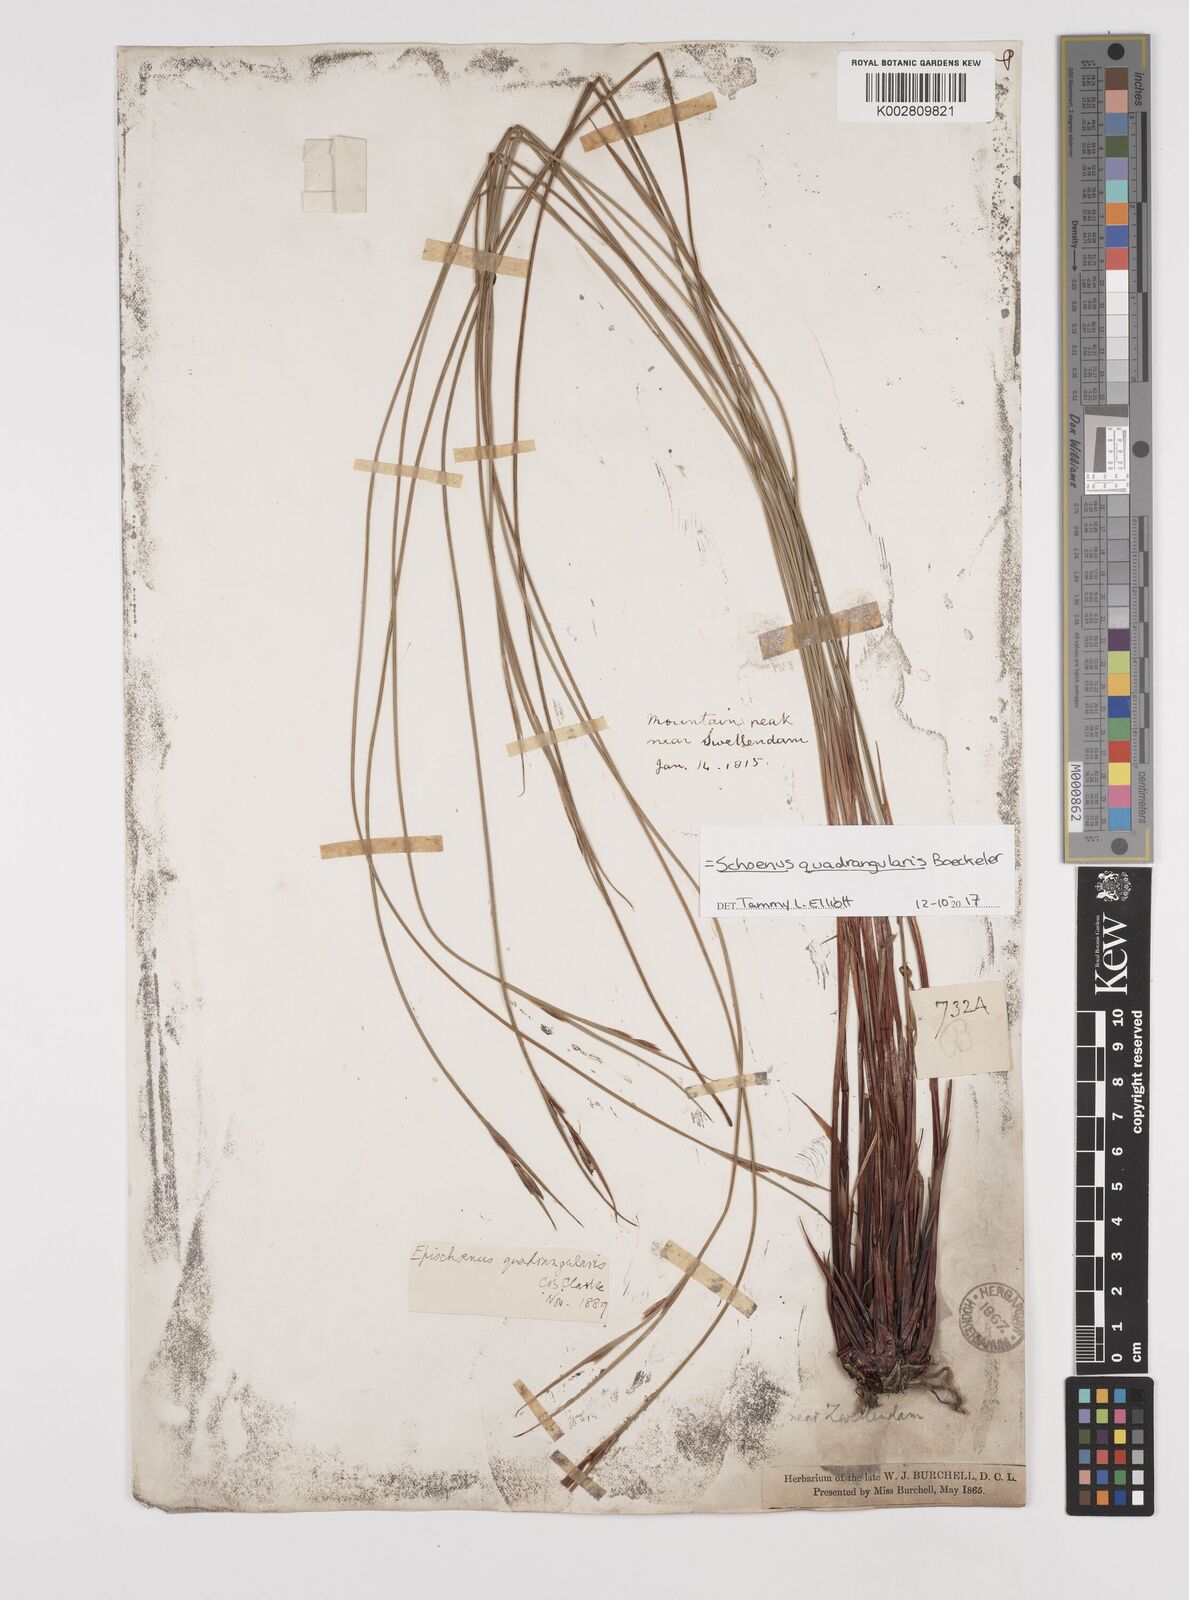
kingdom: Plantae
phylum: Tracheophyta
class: Liliopsida
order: Poales
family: Cyperaceae
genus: Schoenus
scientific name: Schoenus quadrangularis
